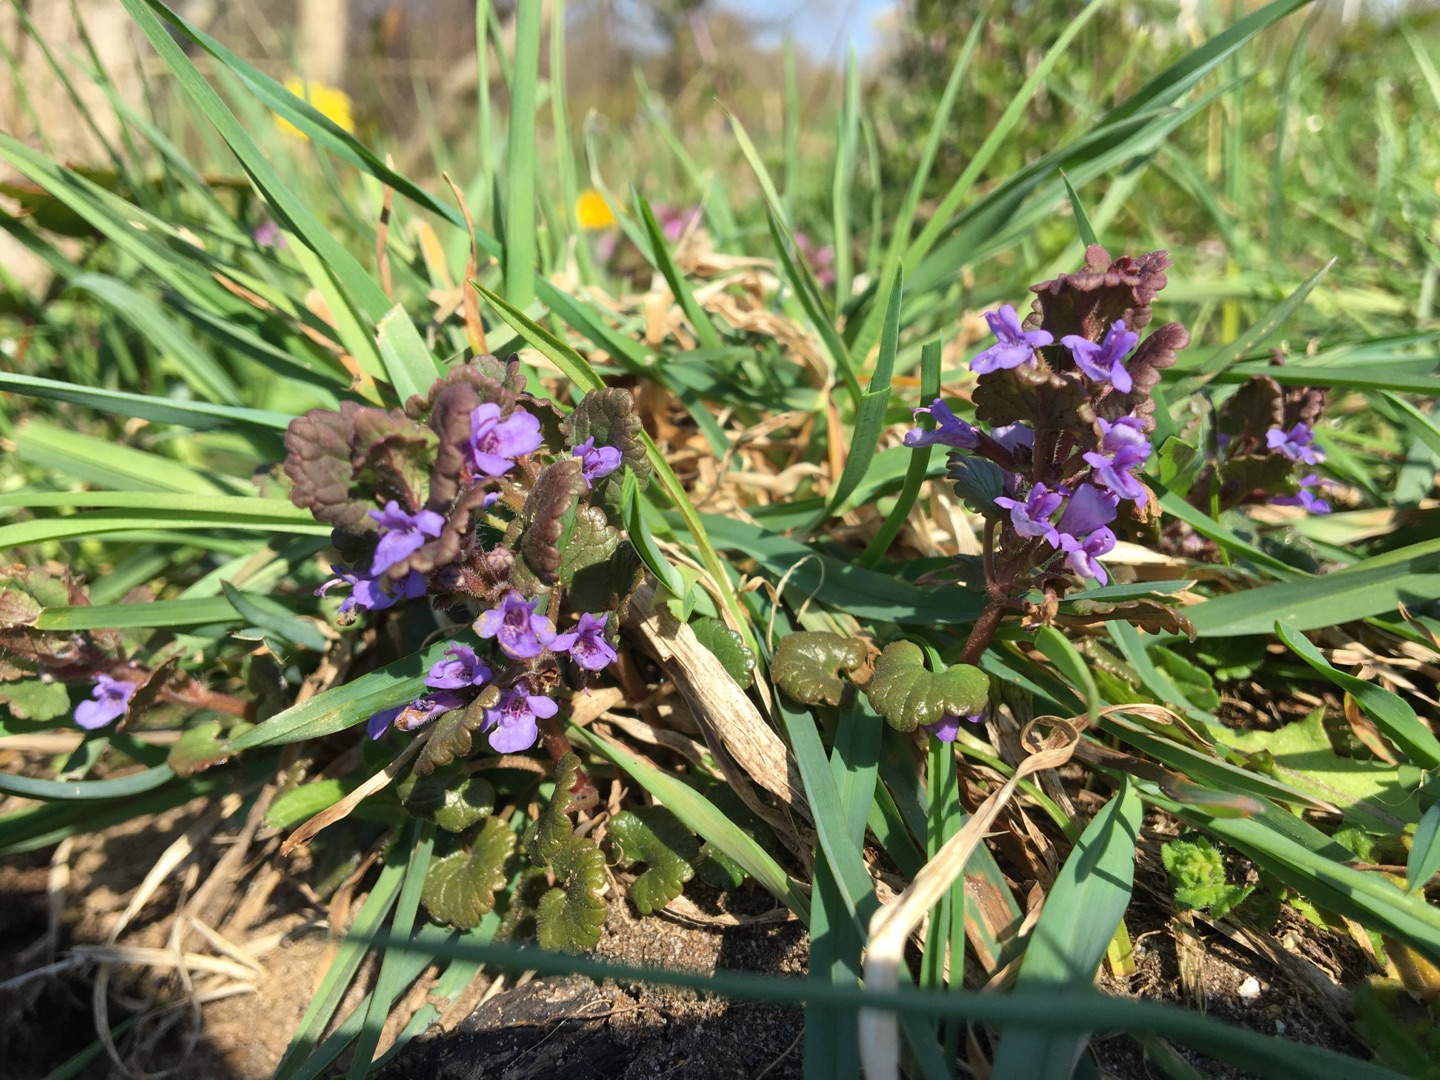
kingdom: Plantae
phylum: Tracheophyta
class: Magnoliopsida
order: Lamiales
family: Lamiaceae
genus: Glechoma
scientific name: Glechoma hederacea
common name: Korsknap
